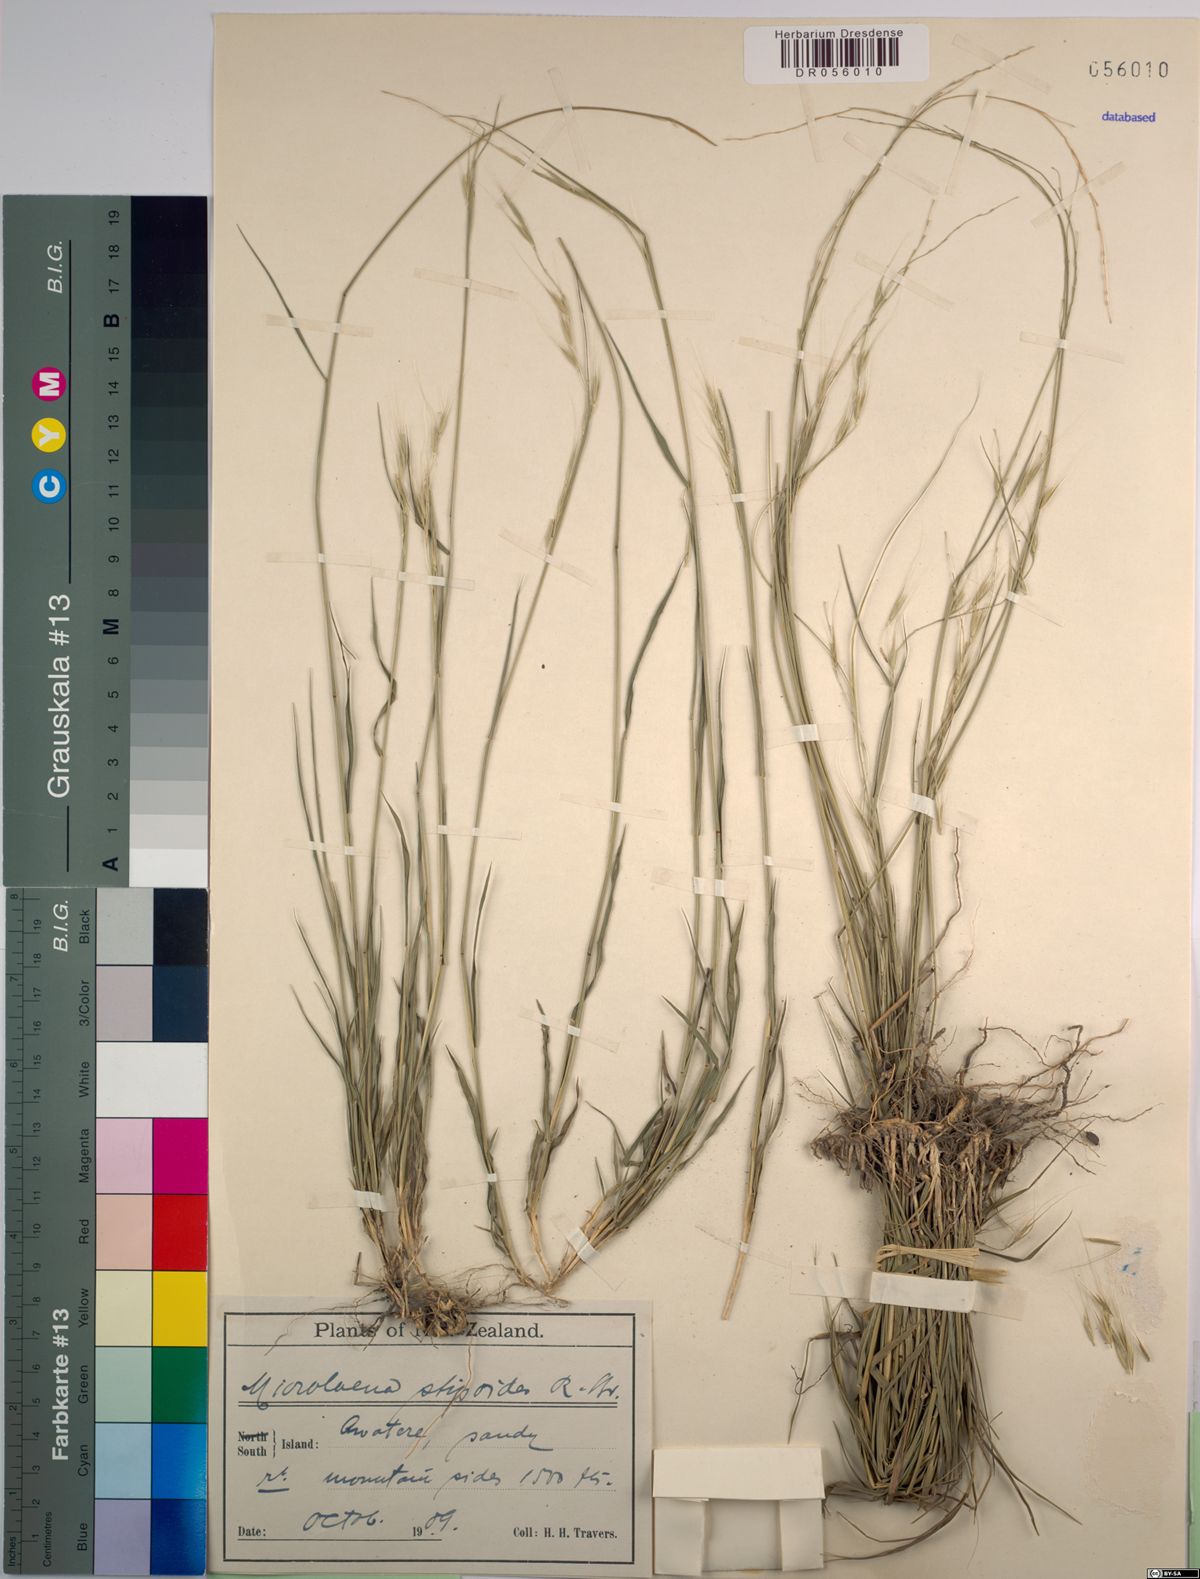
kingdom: Plantae
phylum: Tracheophyta
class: Liliopsida
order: Poales
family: Poaceae
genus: Microlaena
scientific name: Microlaena stipoides
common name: Meadow ricegrass
